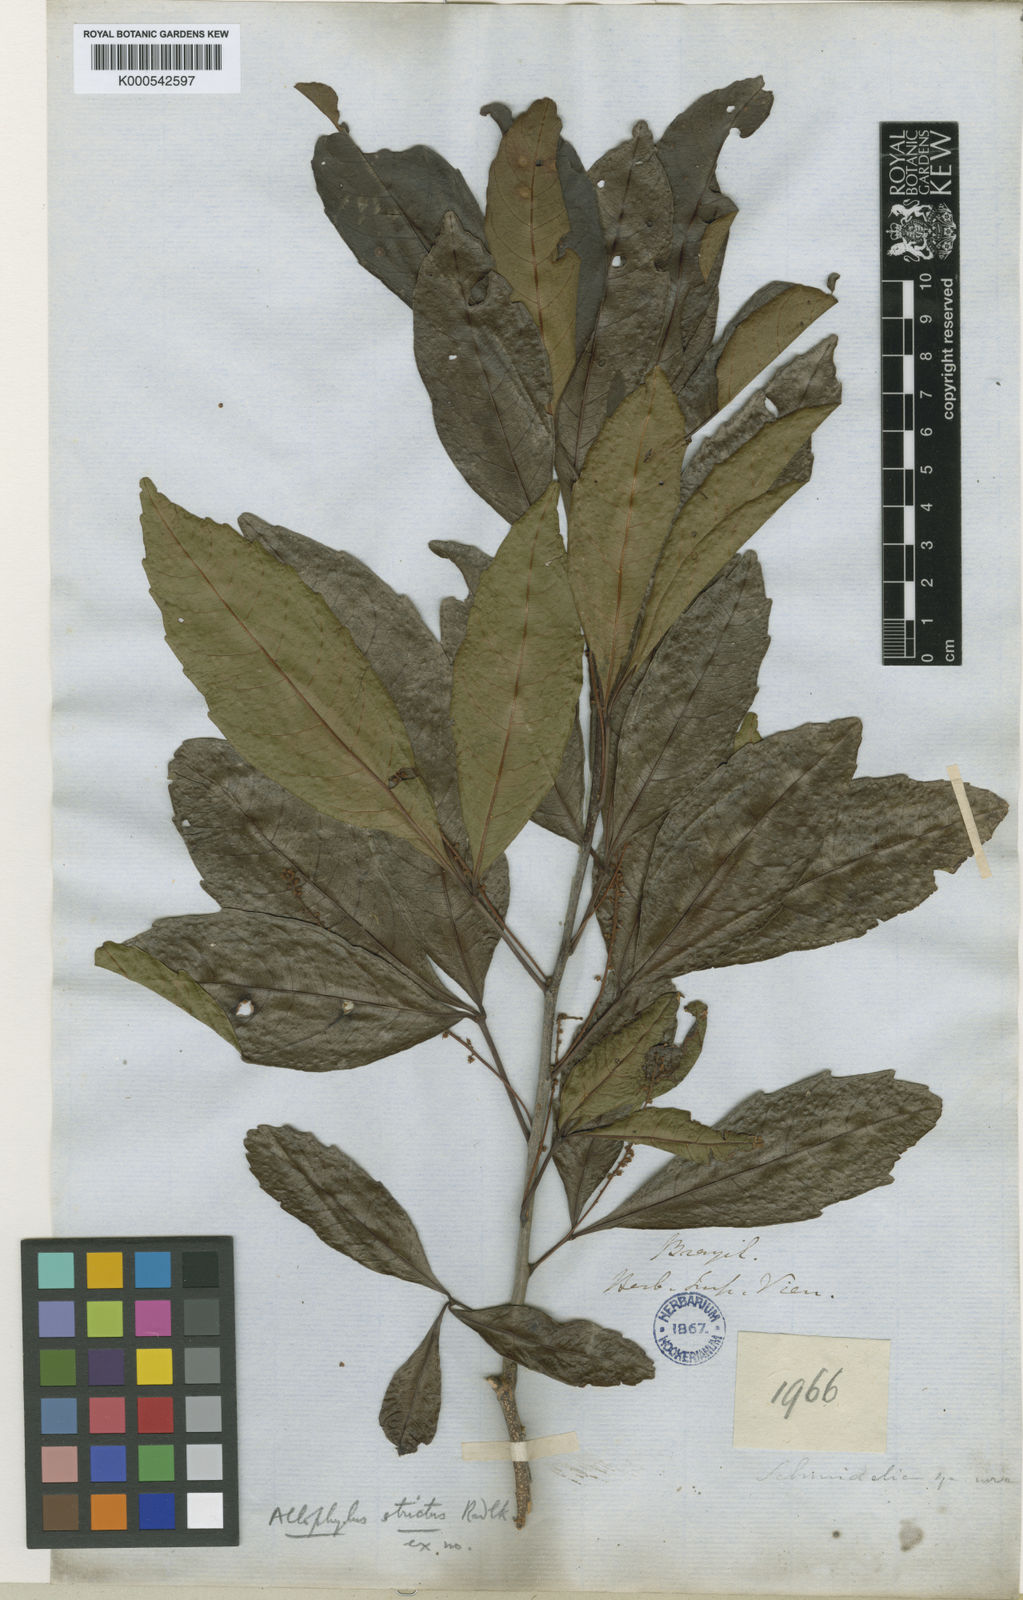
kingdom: Plantae
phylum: Tracheophyta
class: Magnoliopsida
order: Sapindales
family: Sapindaceae
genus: Allophylus
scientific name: Allophylus strictus
